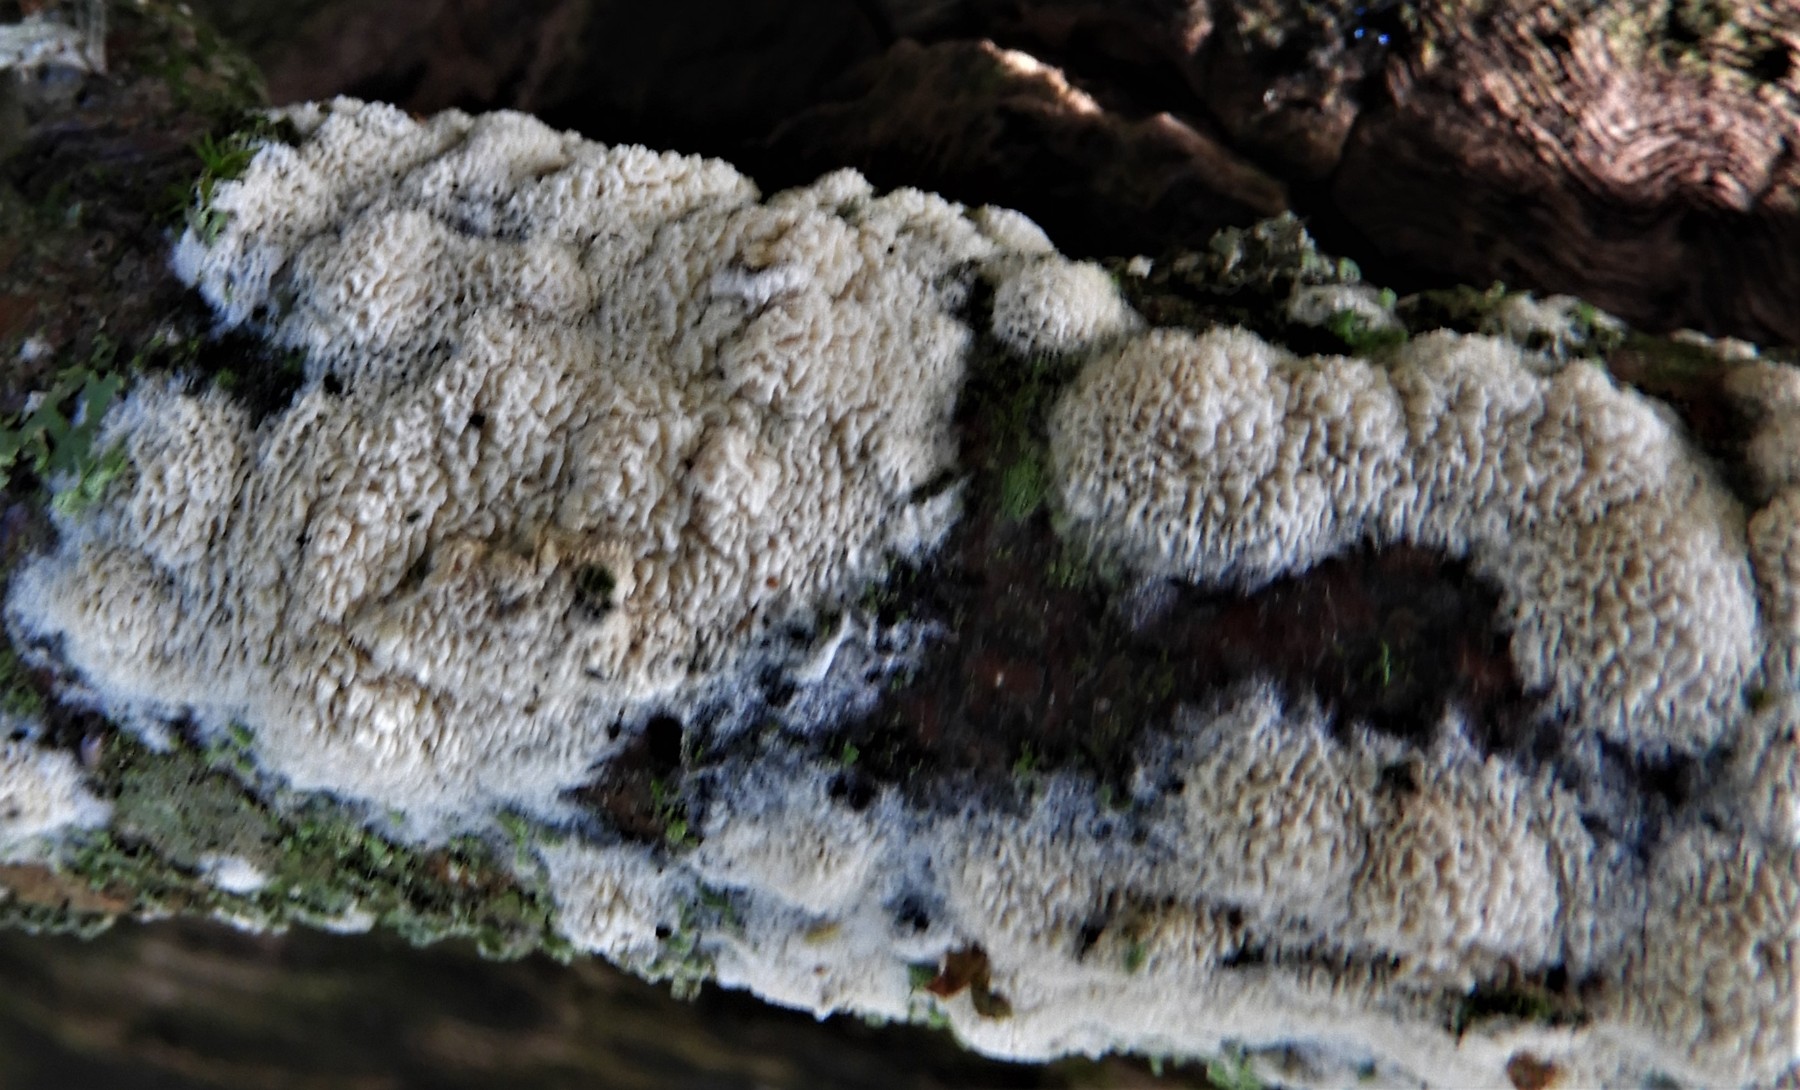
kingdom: Fungi
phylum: Basidiomycota
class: Agaricomycetes
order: Hymenochaetales
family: Schizoporaceae
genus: Xylodon
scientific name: Xylodon radula
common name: grovtandet kalkskind
